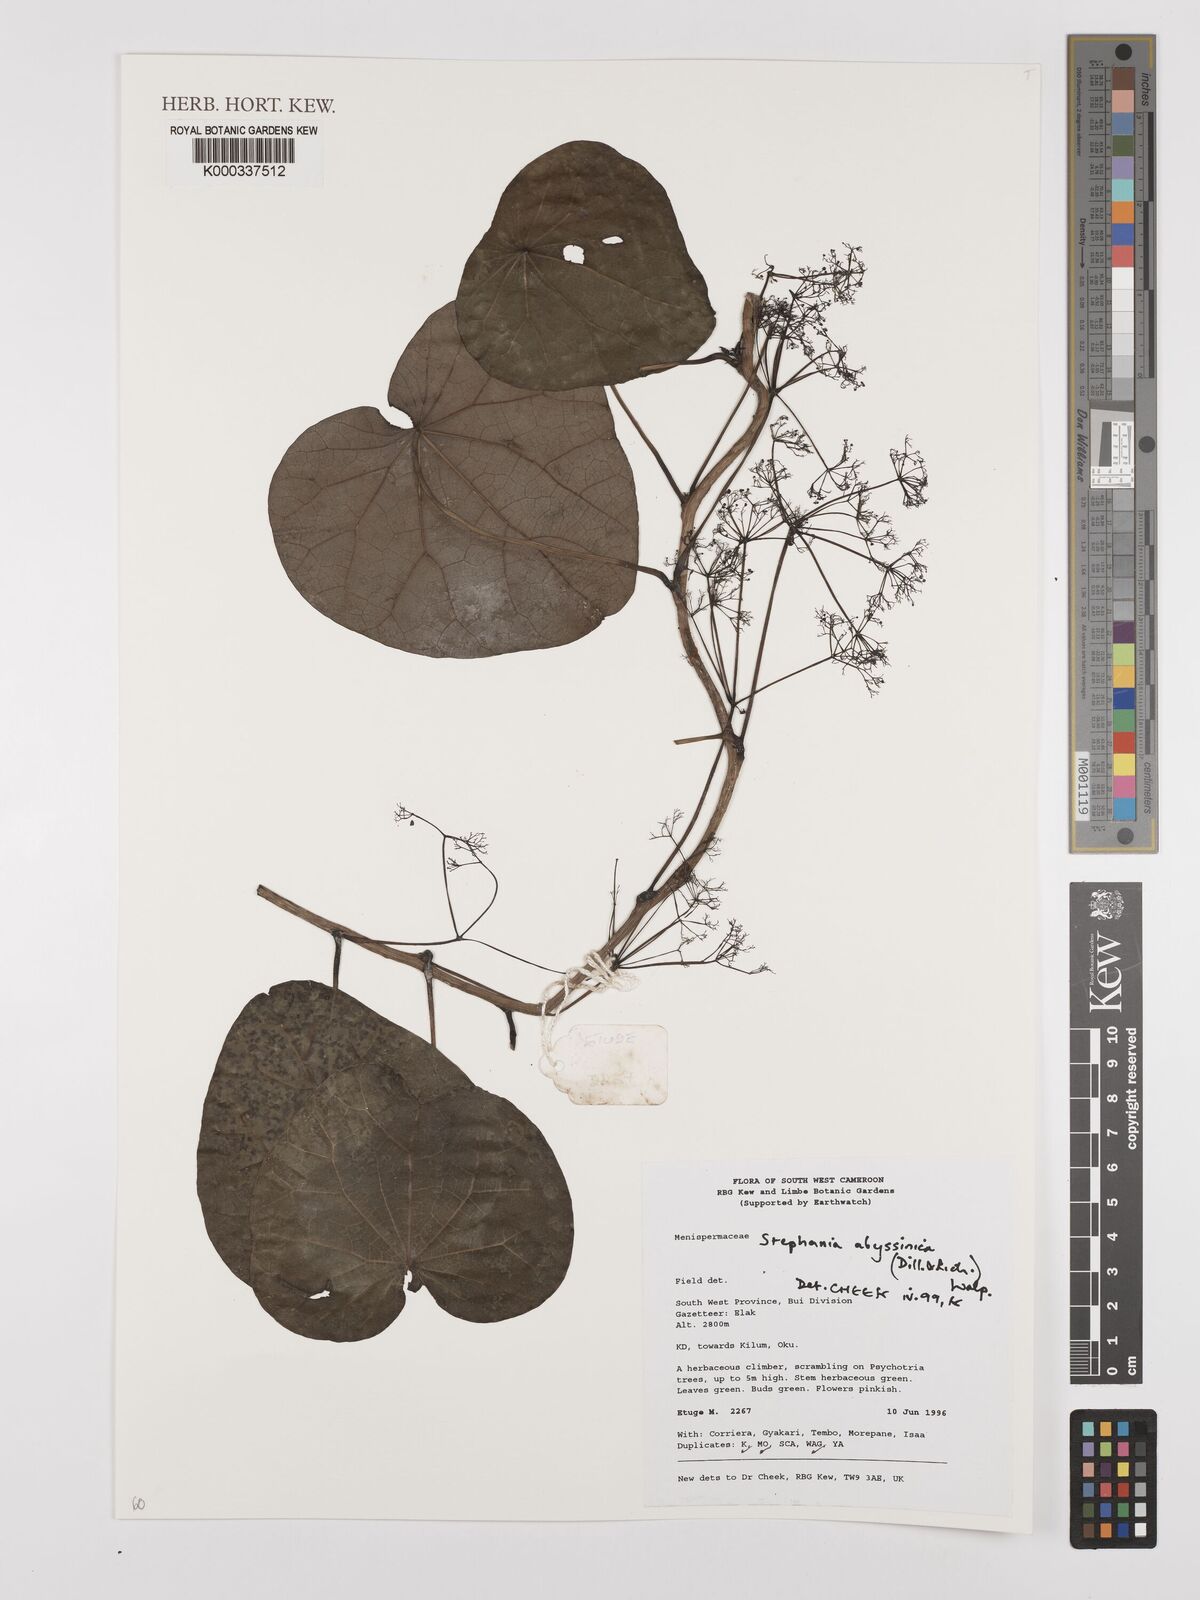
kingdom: Plantae
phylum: Tracheophyta
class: Magnoliopsida
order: Ranunculales
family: Menispermaceae
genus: Stephania
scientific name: Stephania
